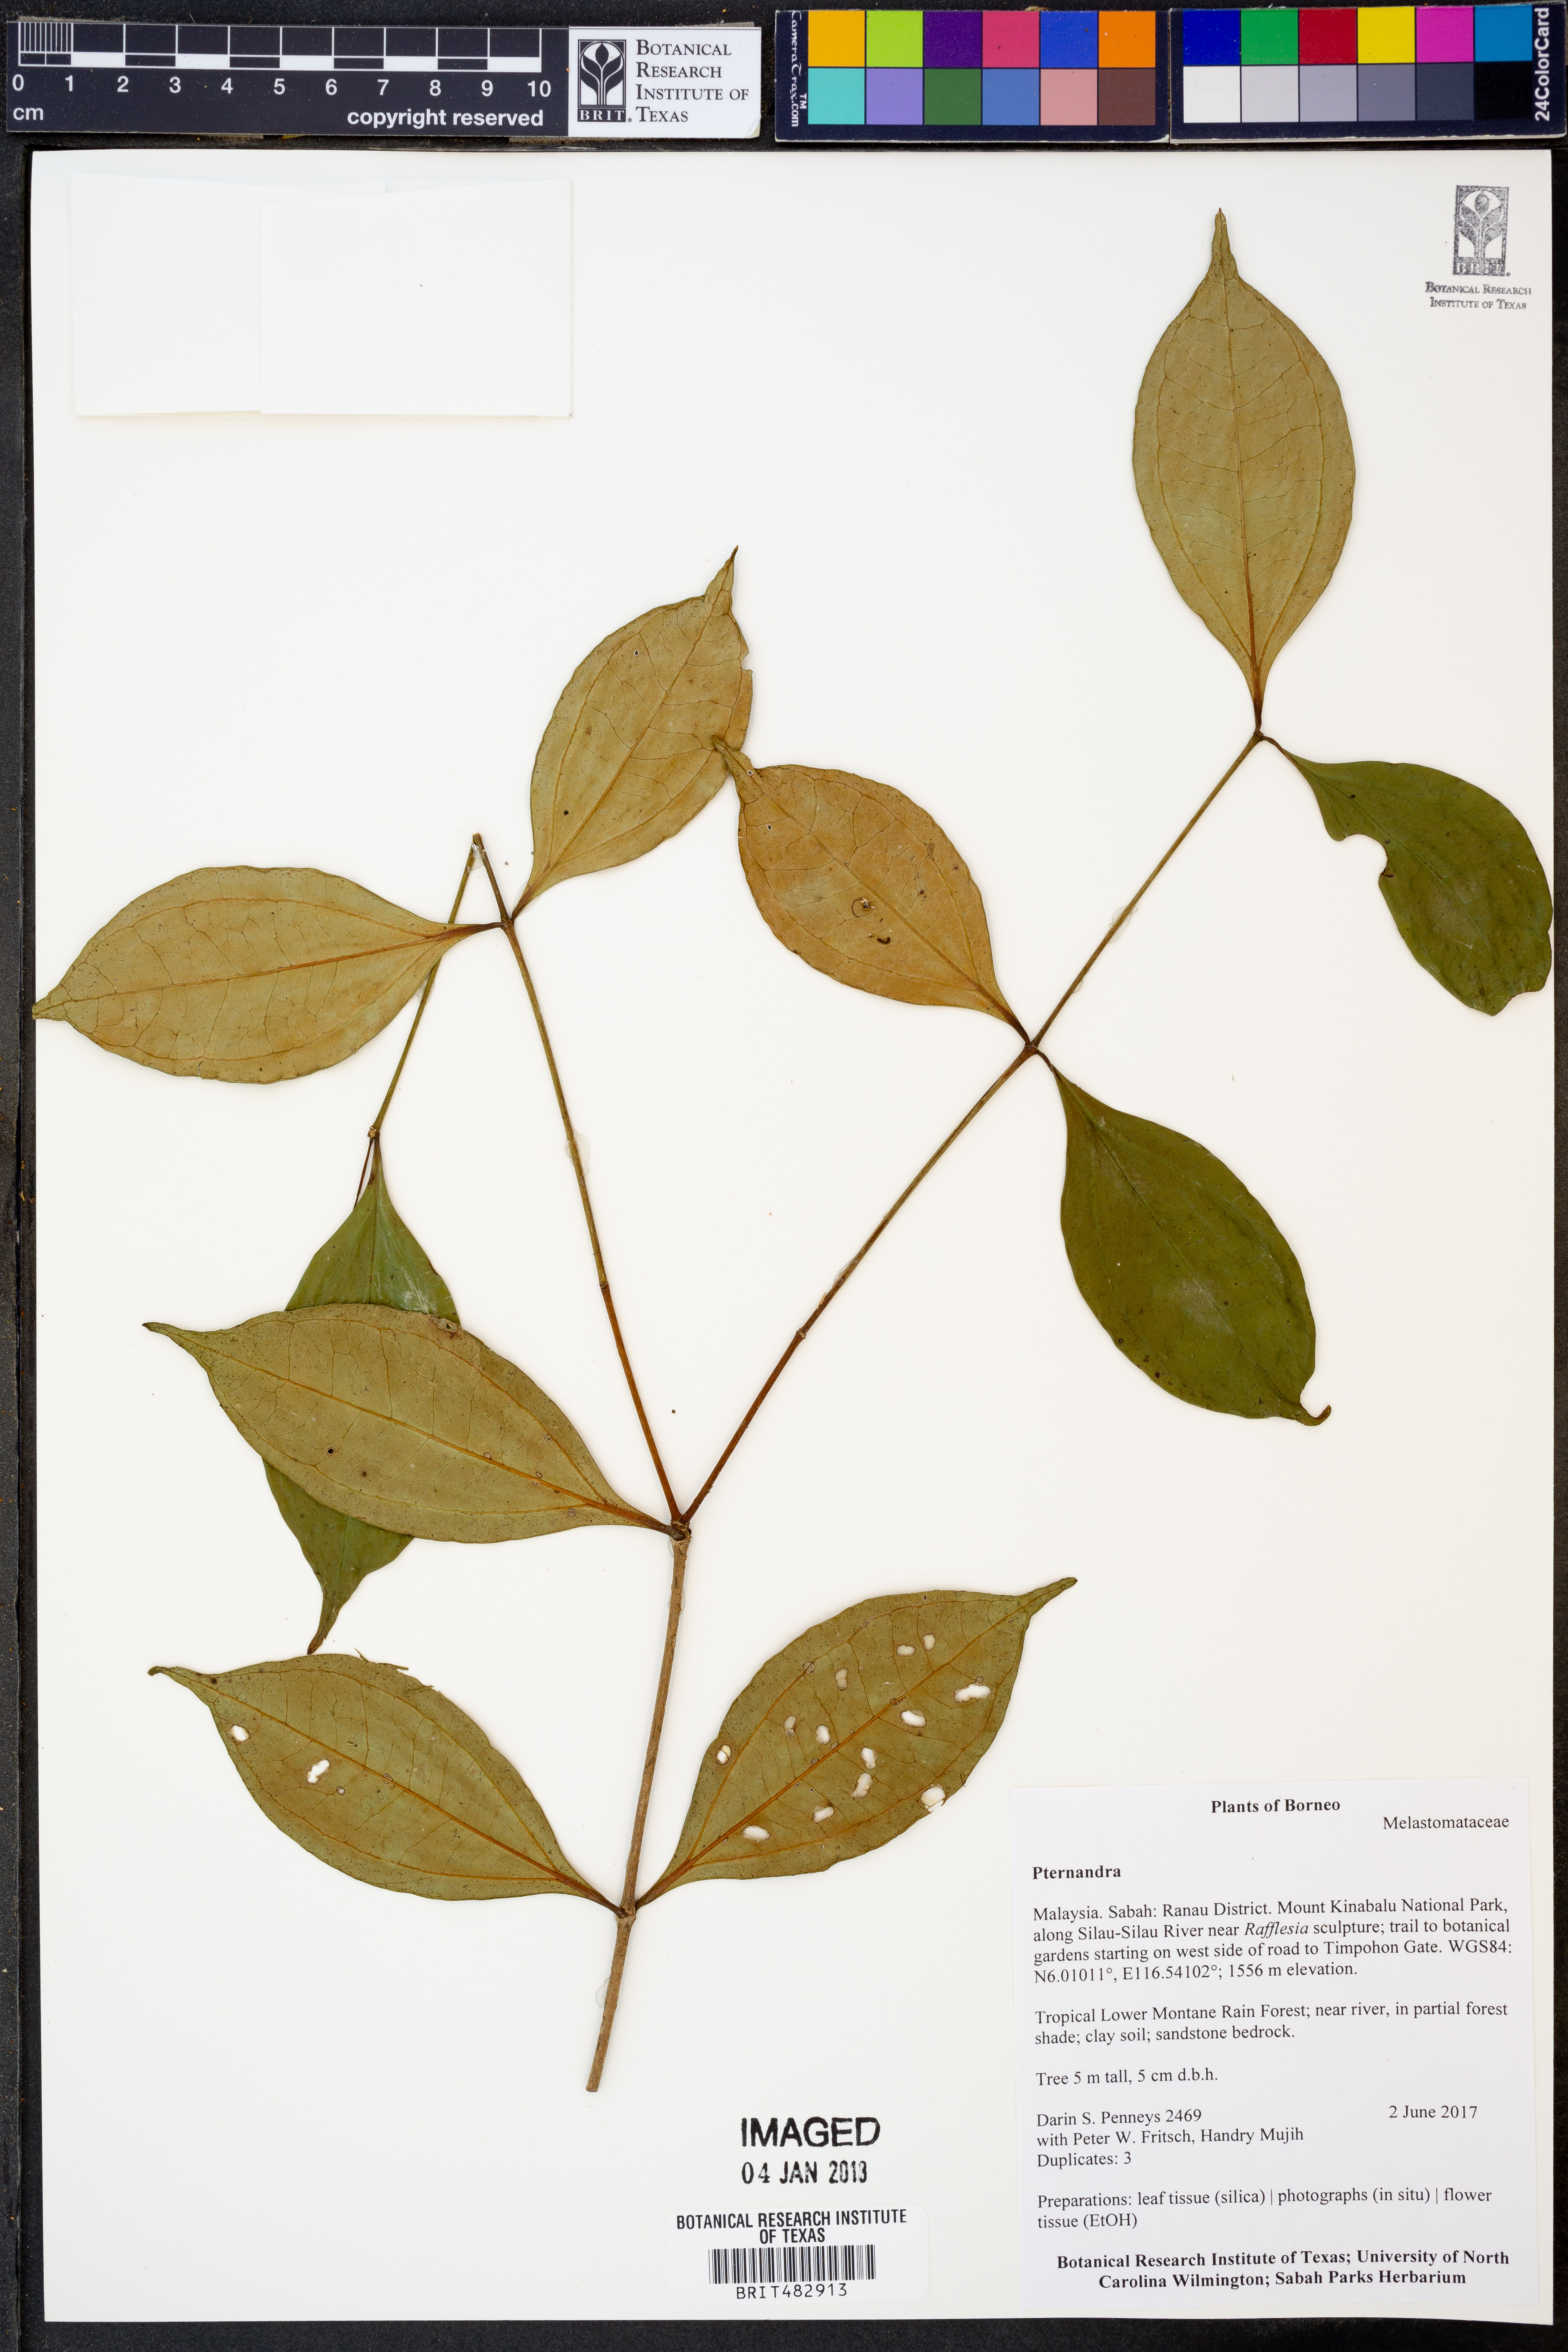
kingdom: Plantae
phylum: Tracheophyta
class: Magnoliopsida
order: Myrtales
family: Melastomataceae
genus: Pternandra
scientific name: Pternandra
